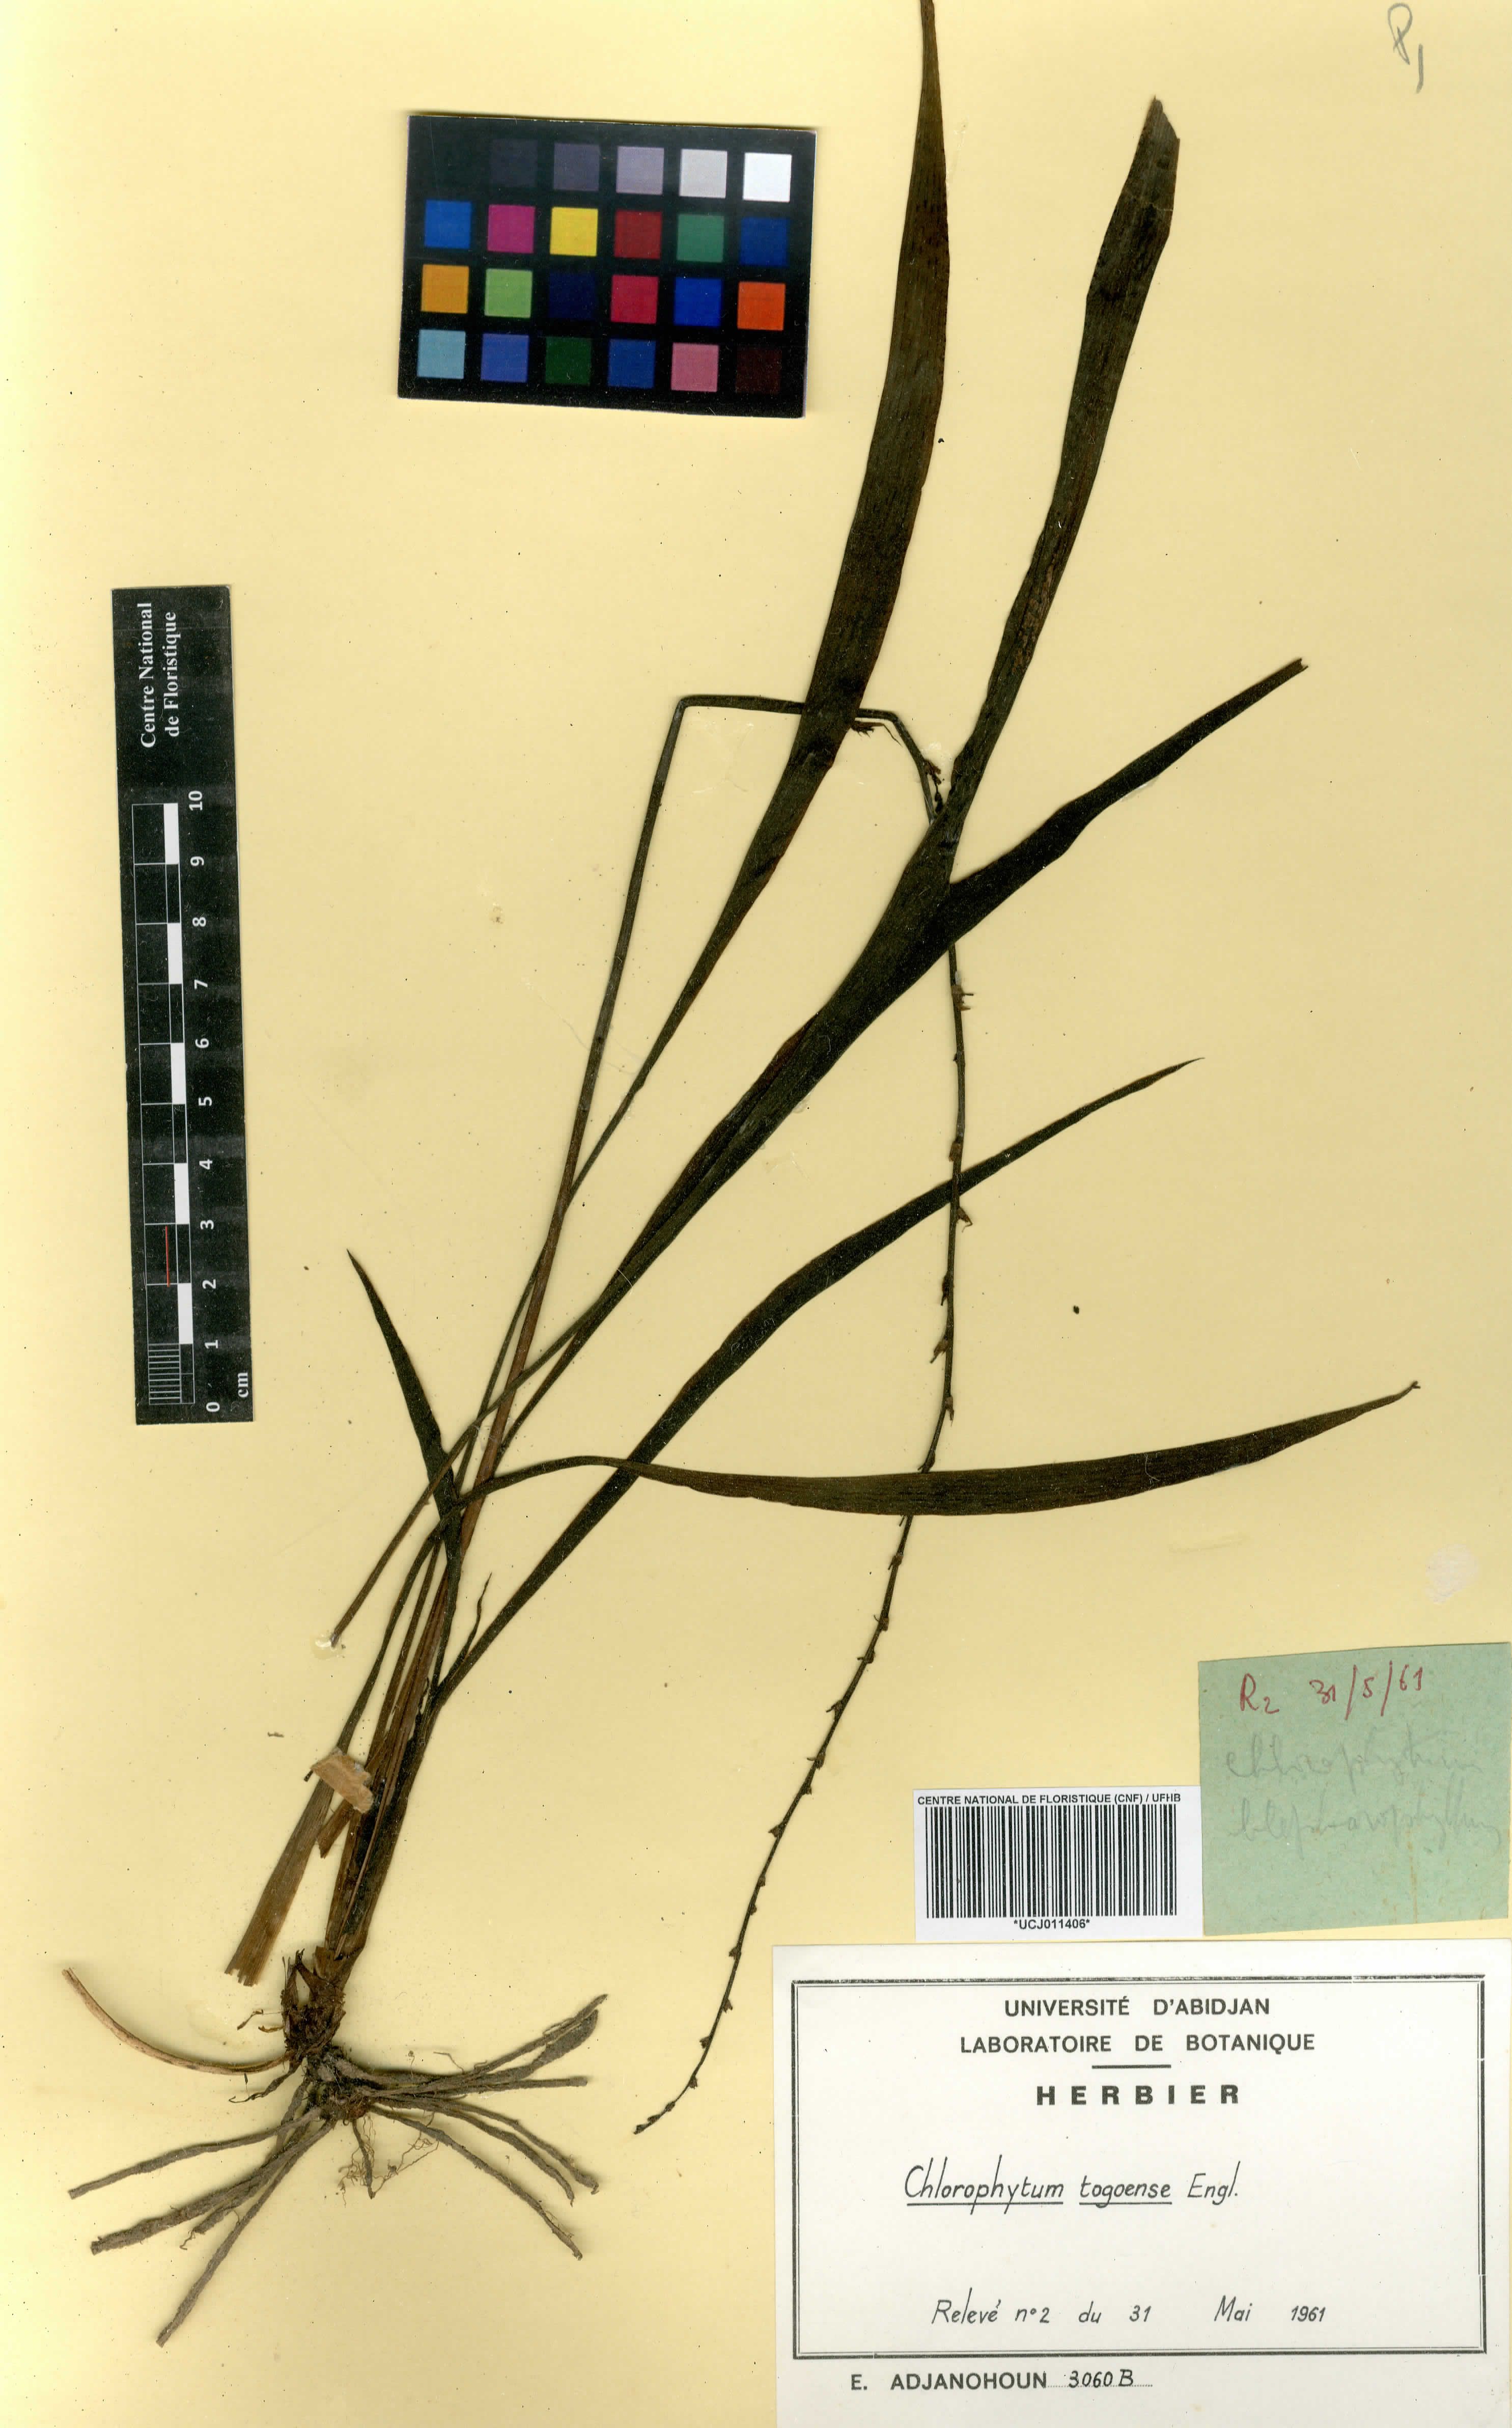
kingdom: Plantae
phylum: Tracheophyta
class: Liliopsida
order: Asparagales
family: Asparagaceae
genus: Chlorophytum
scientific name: Chlorophytum lancifolium
